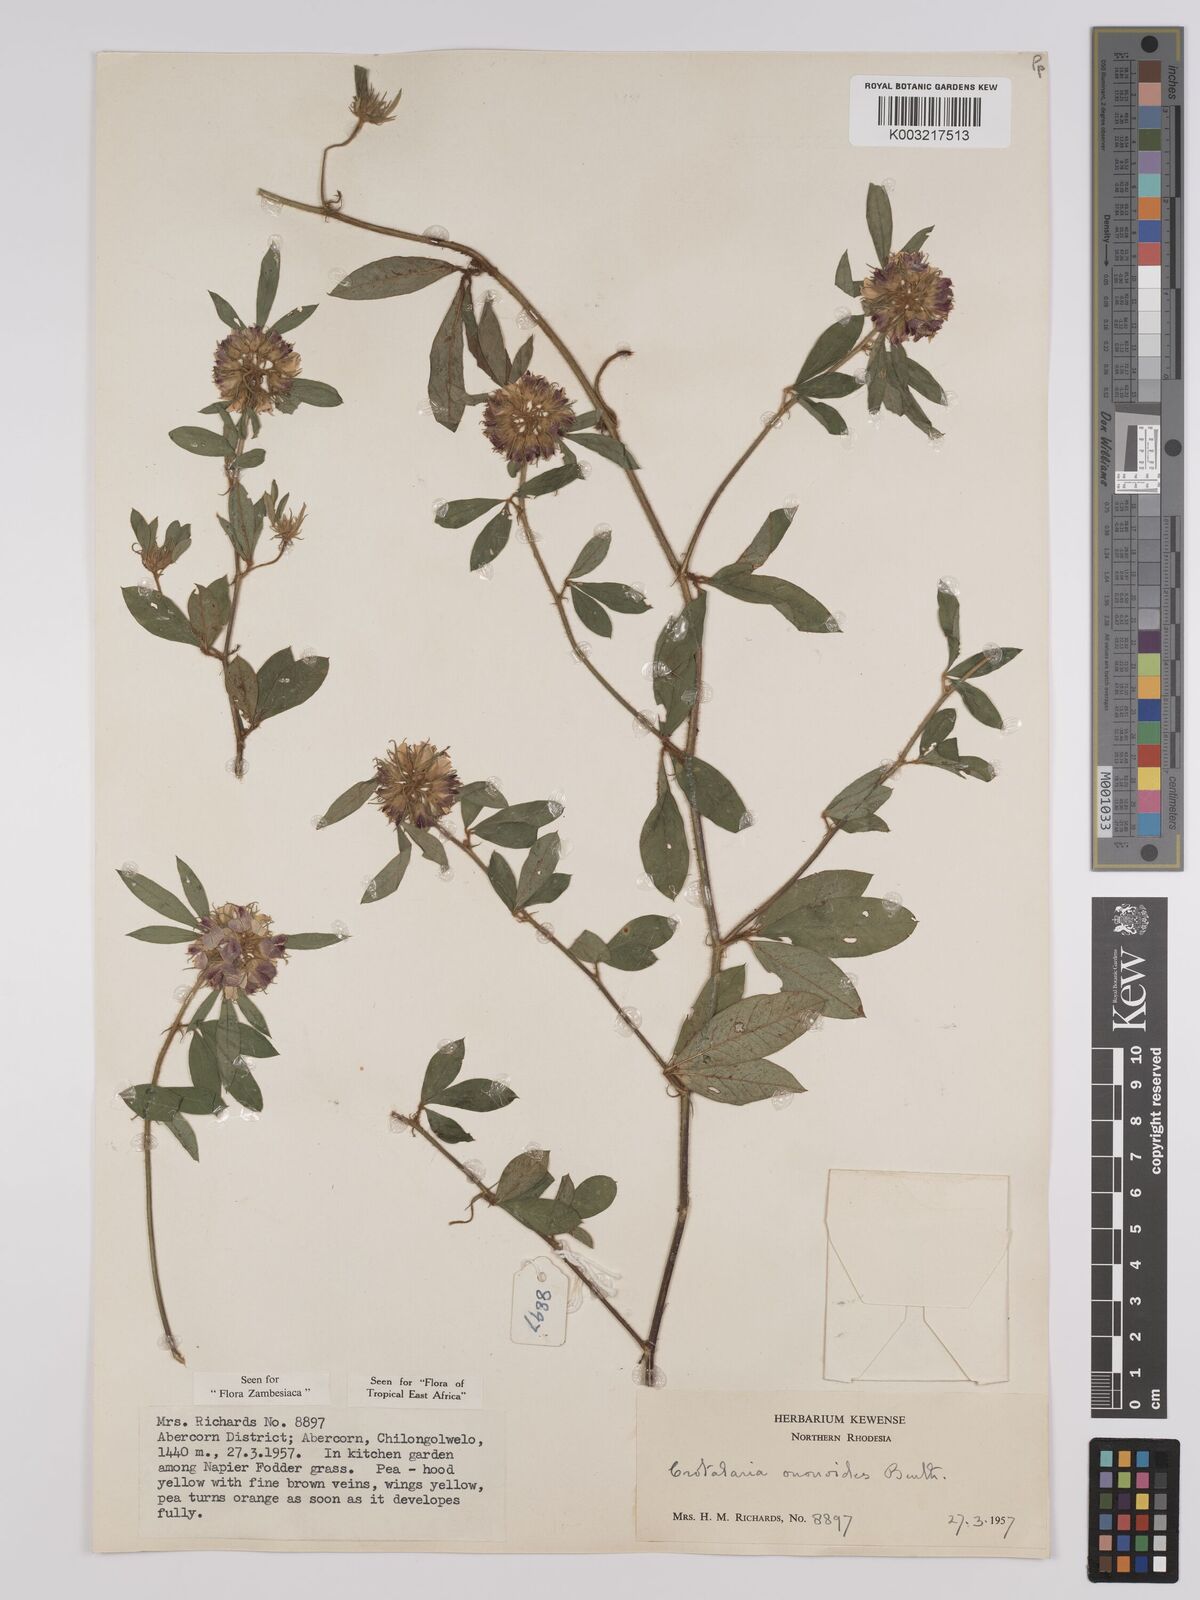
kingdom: Plantae
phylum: Tracheophyta
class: Magnoliopsida
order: Fabales
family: Fabaceae
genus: Crotalaria
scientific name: Crotalaria ononoides
